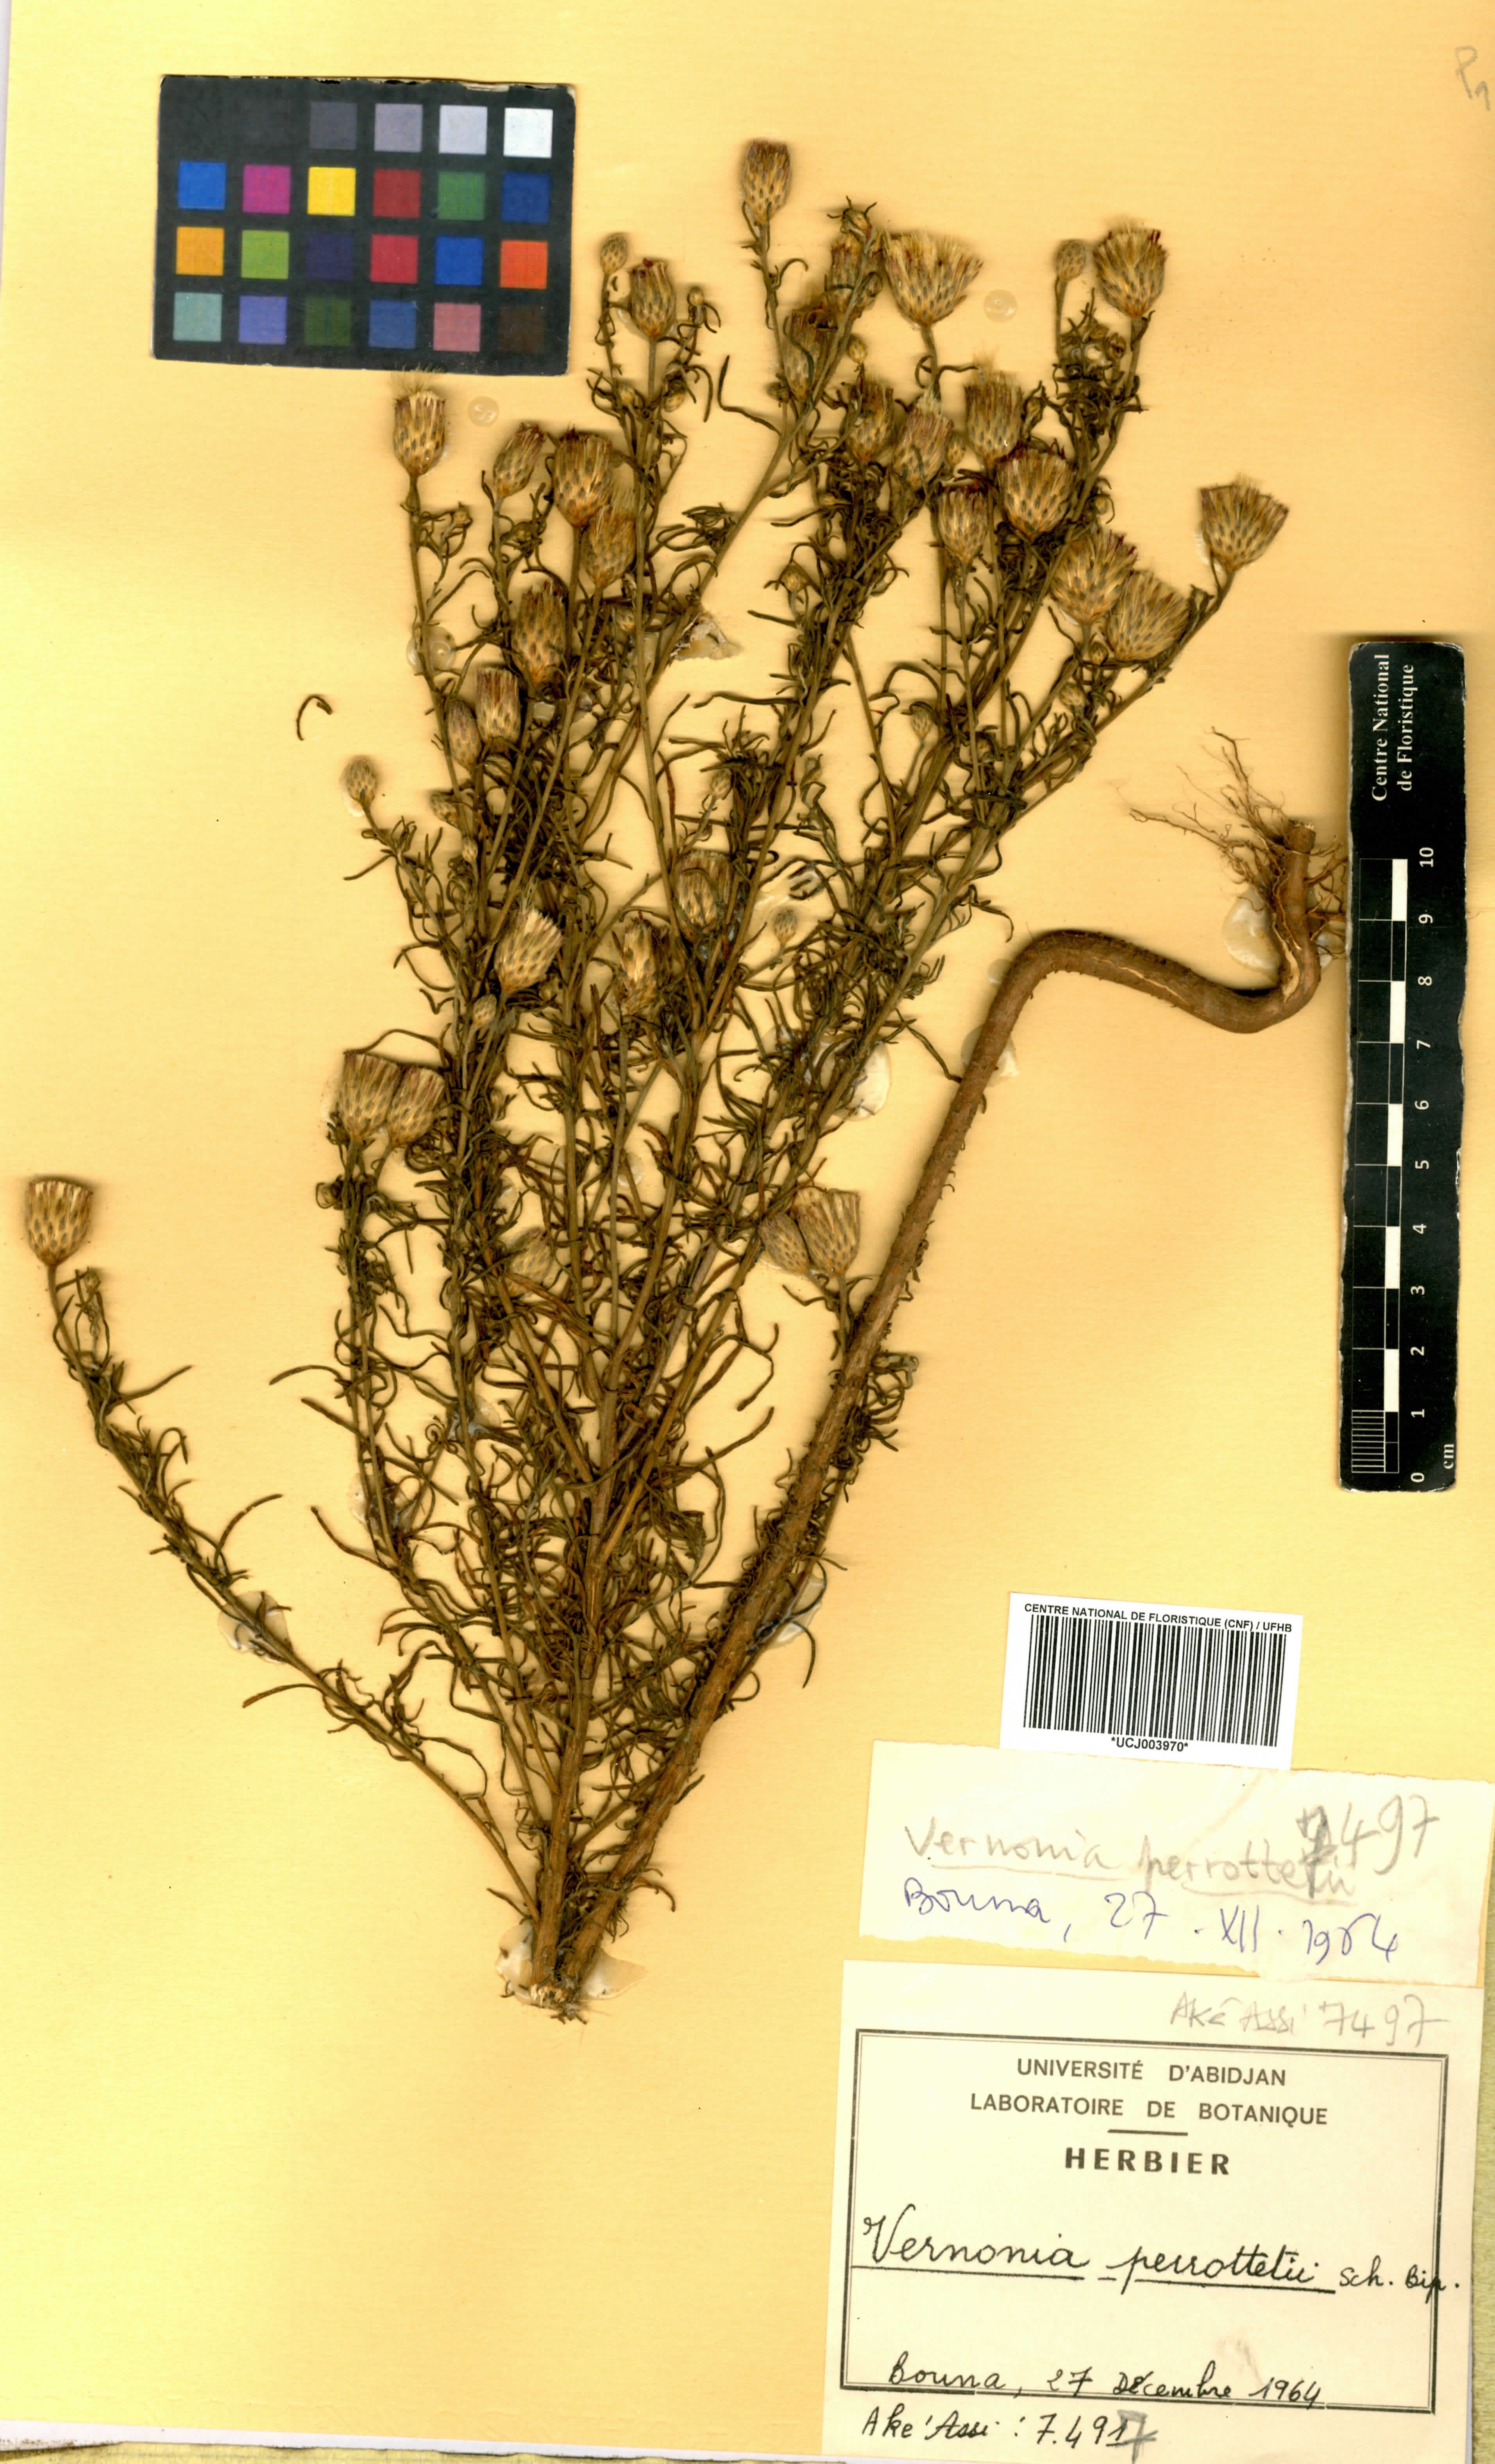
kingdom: Plantae
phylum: Tracheophyta
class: Magnoliopsida
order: Asterales
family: Asteraceae
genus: Crystallopollen
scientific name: Crystallopollen serratuloides
